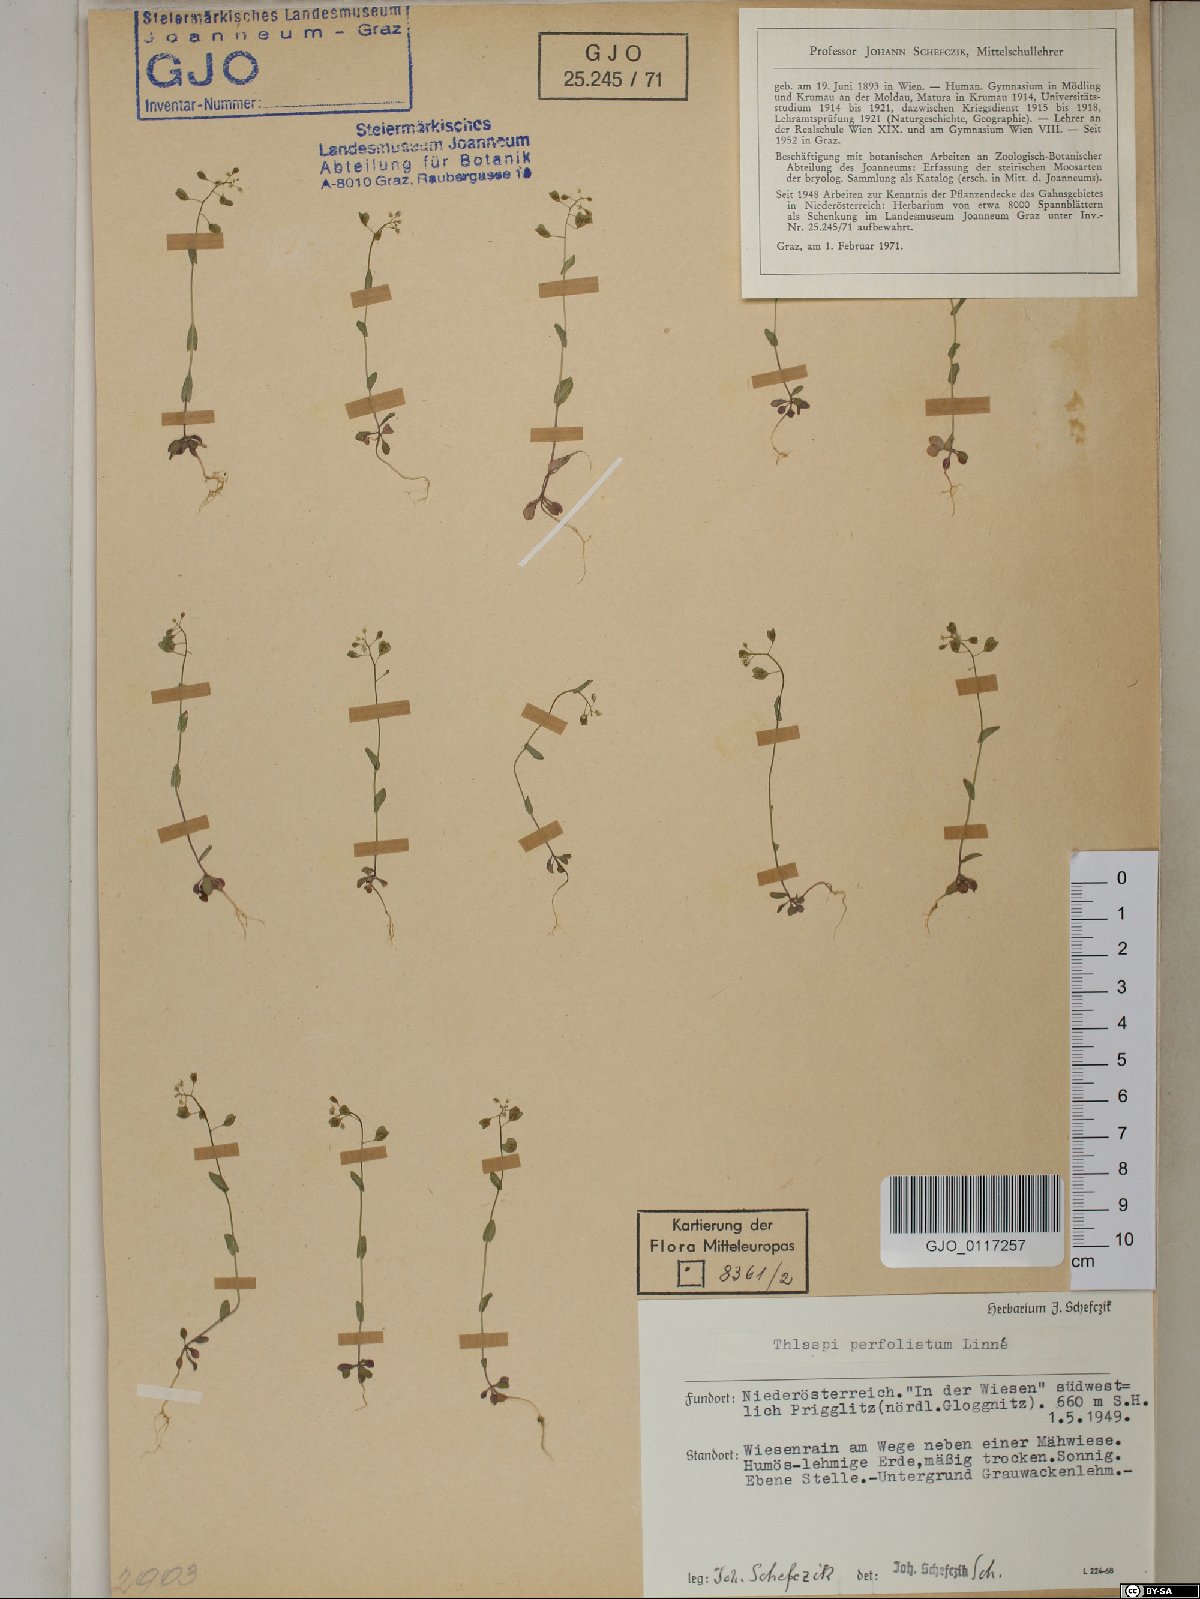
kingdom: Plantae
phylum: Tracheophyta
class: Magnoliopsida
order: Brassicales
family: Brassicaceae
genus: Noccaea
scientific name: Noccaea perfoliata
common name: Perfoliate pennycress
